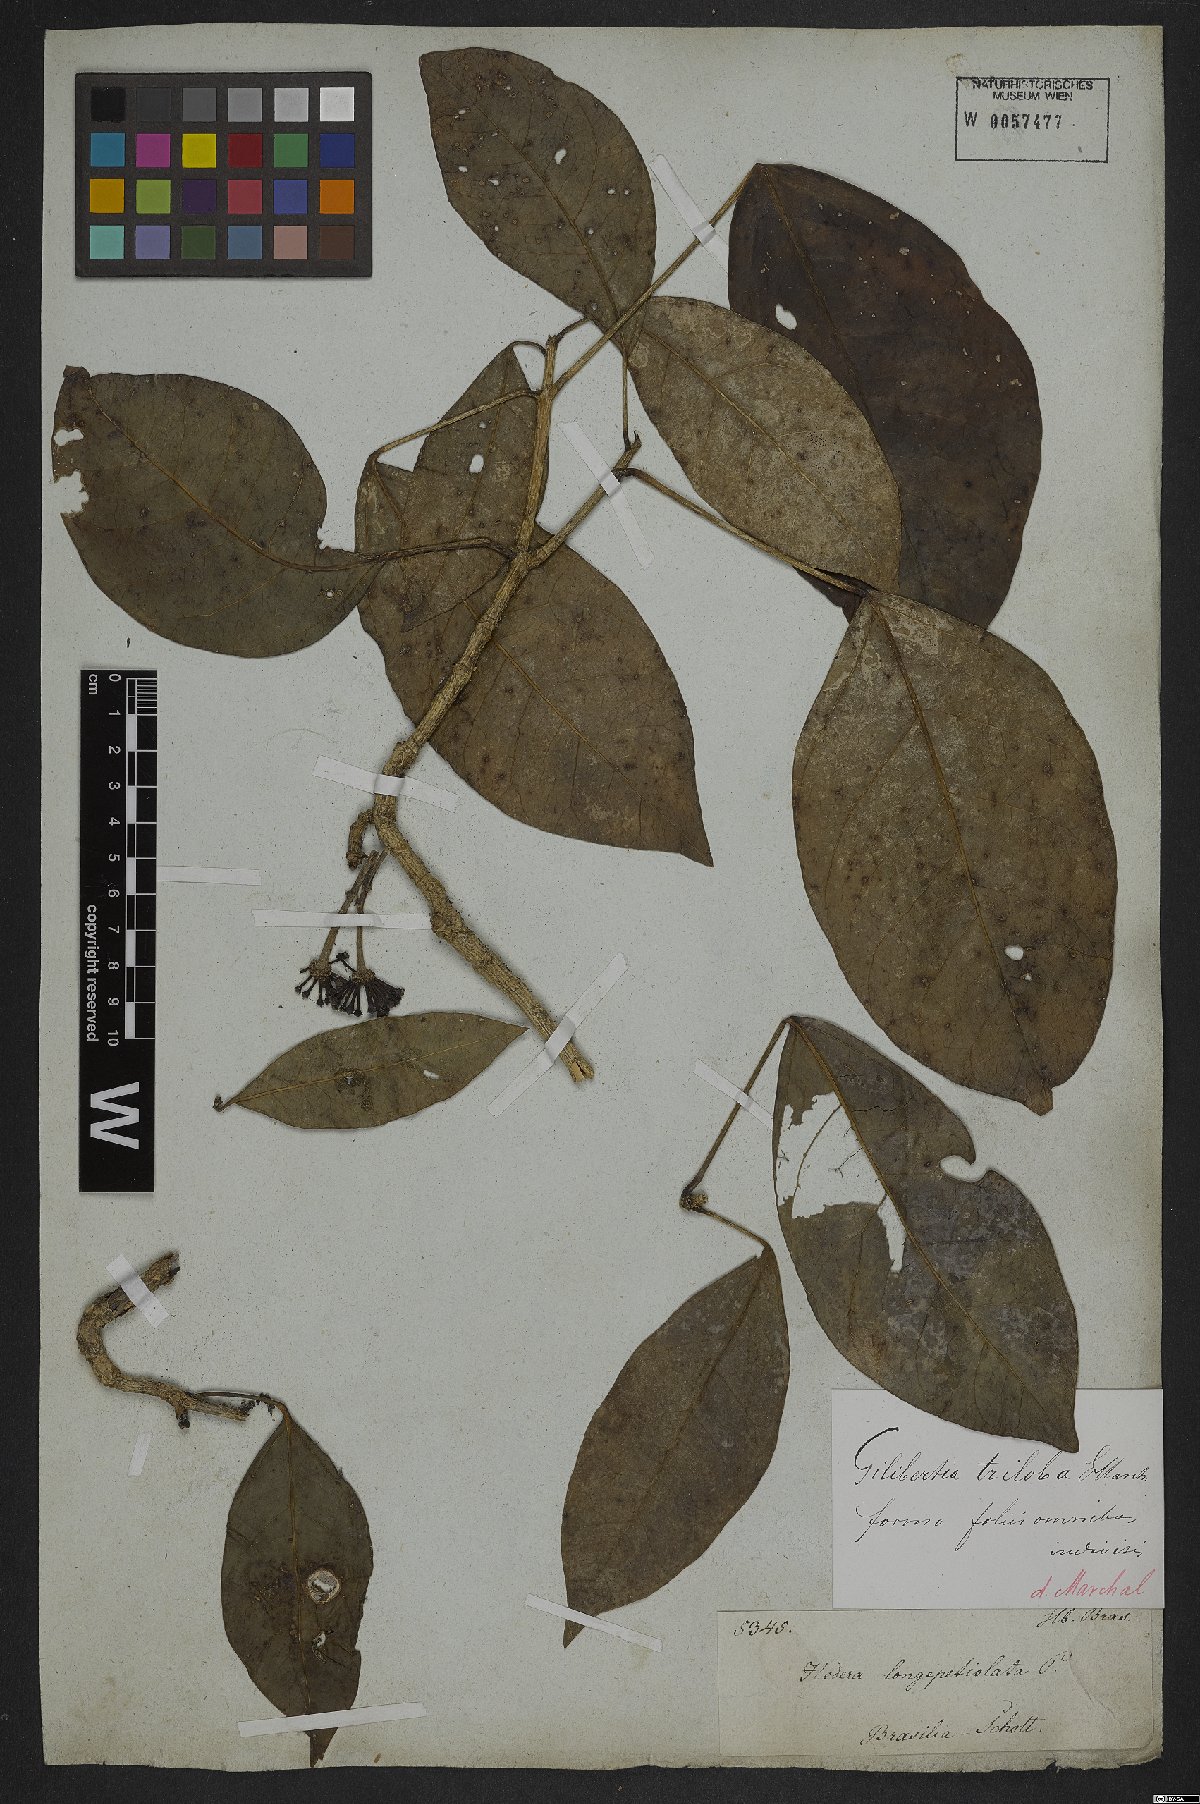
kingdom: Plantae
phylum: Tracheophyta
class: Magnoliopsida
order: Apiales
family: Araliaceae
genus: Dendropanax
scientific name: Dendropanax trilobus
